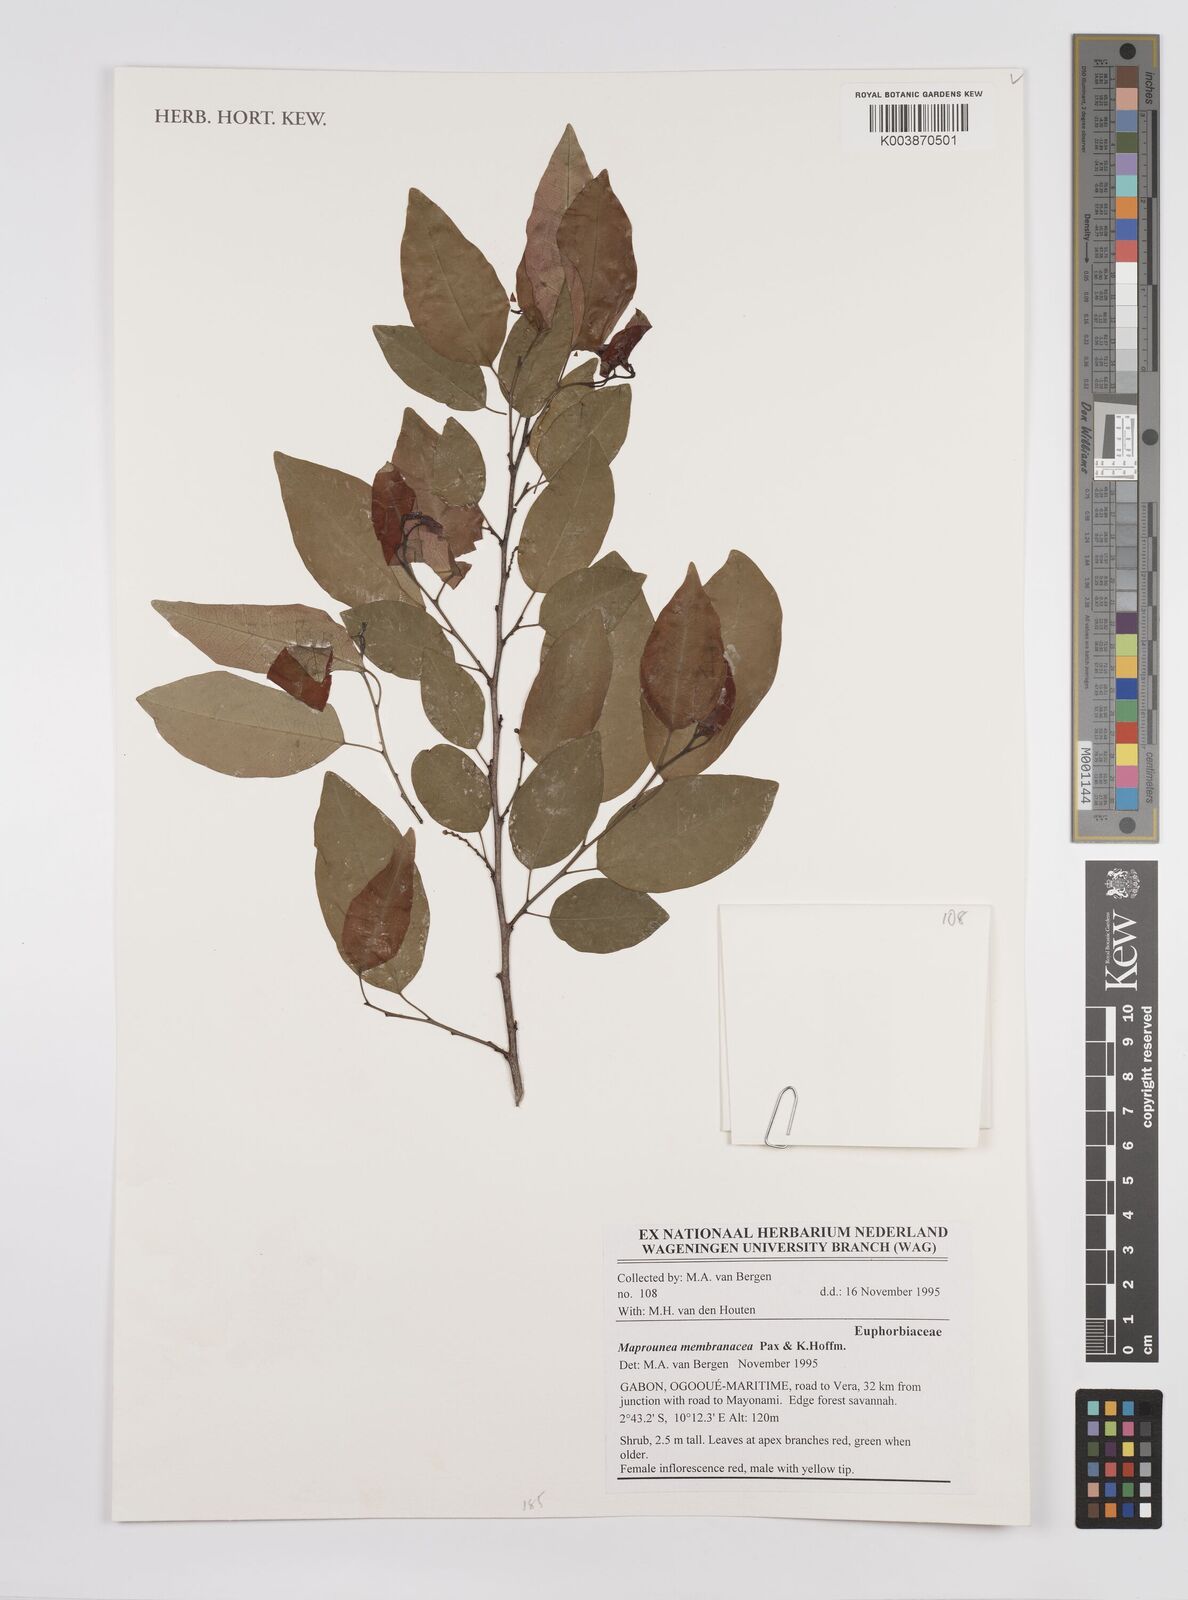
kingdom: Plantae
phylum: Tracheophyta
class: Magnoliopsida
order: Malpighiales
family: Euphorbiaceae
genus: Maprounea
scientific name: Maprounea membranacea
